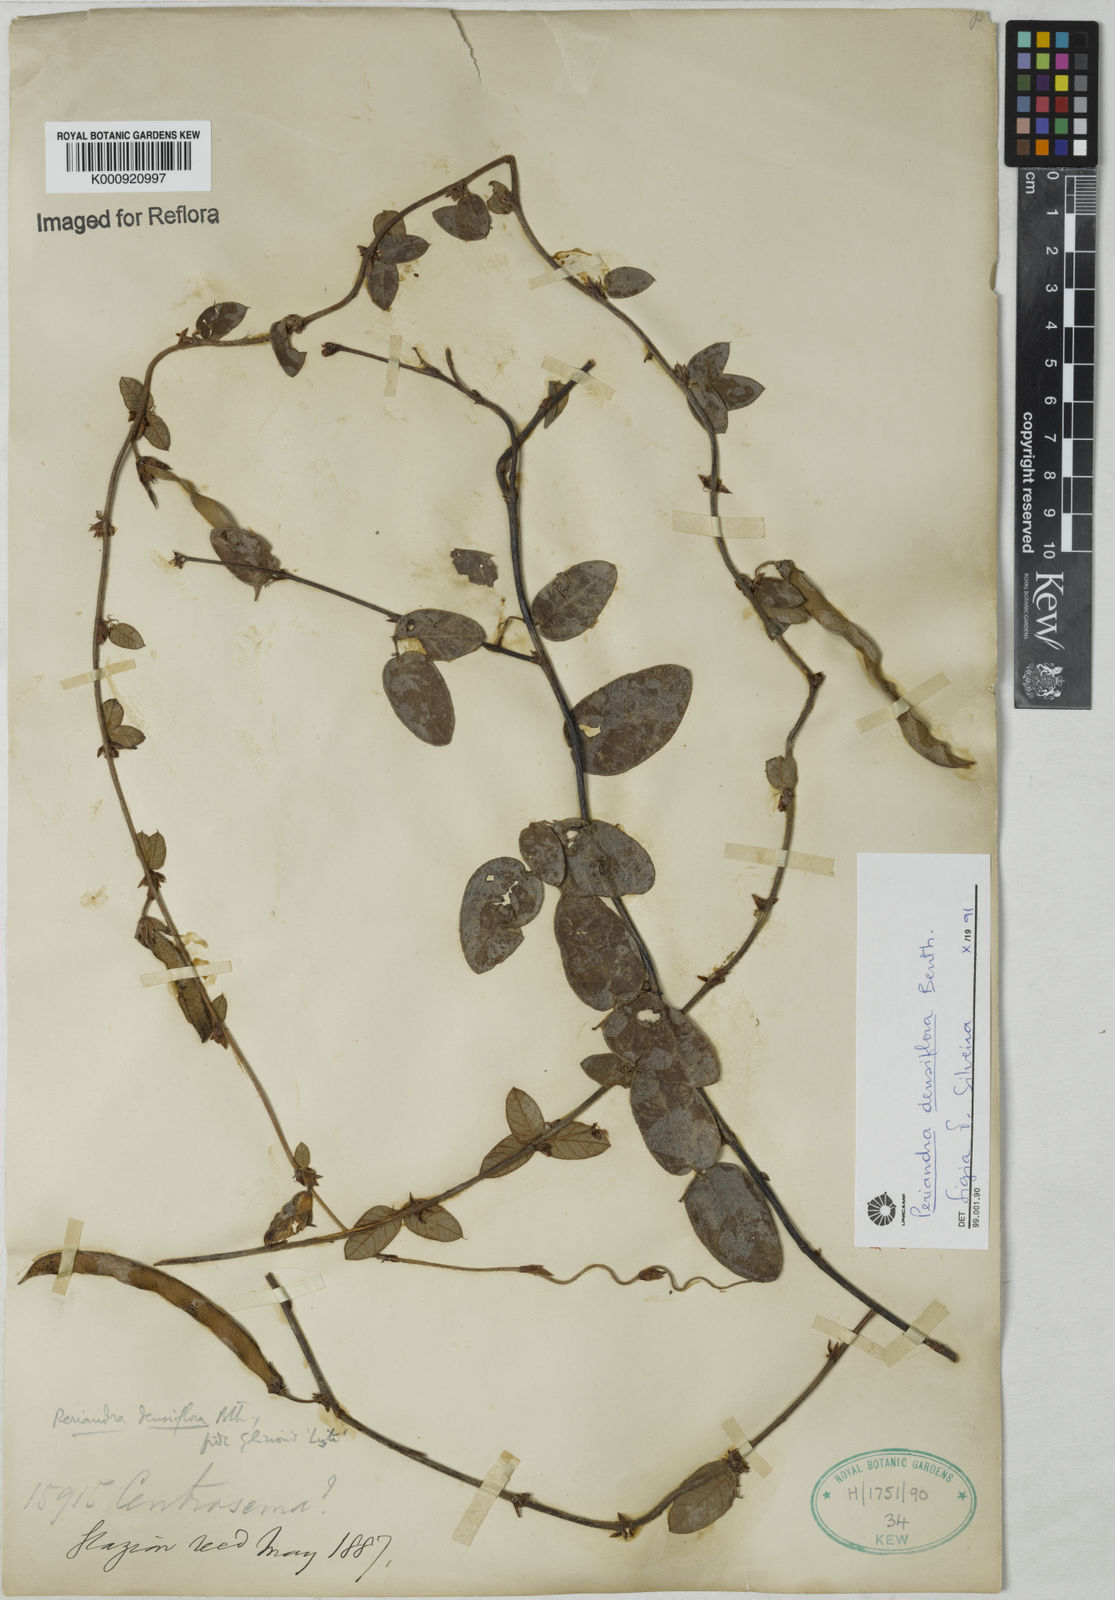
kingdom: Plantae
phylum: Tracheophyta
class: Magnoliopsida
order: Fabales
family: Fabaceae
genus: Periandra
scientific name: Periandra densiflora
